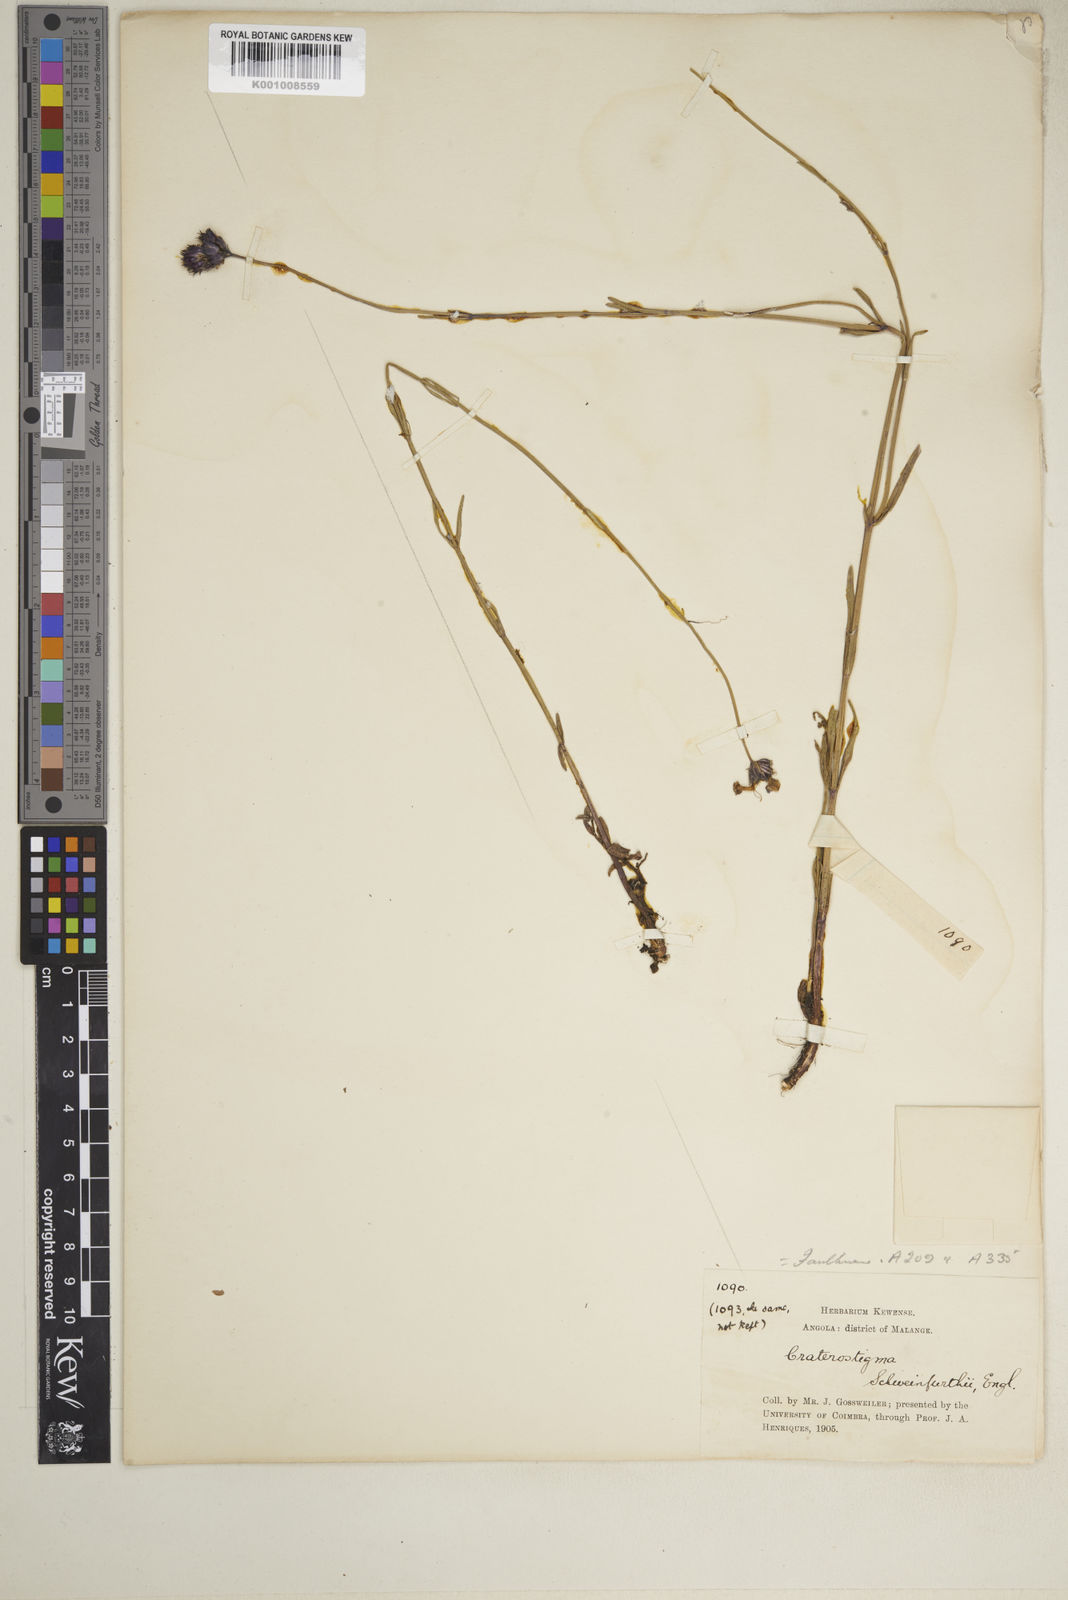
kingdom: Plantae
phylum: Tracheophyta
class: Magnoliopsida
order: Lamiales
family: Linderniaceae
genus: Crepidorhopalon
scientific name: Crepidorhopalon schweinfurthii
